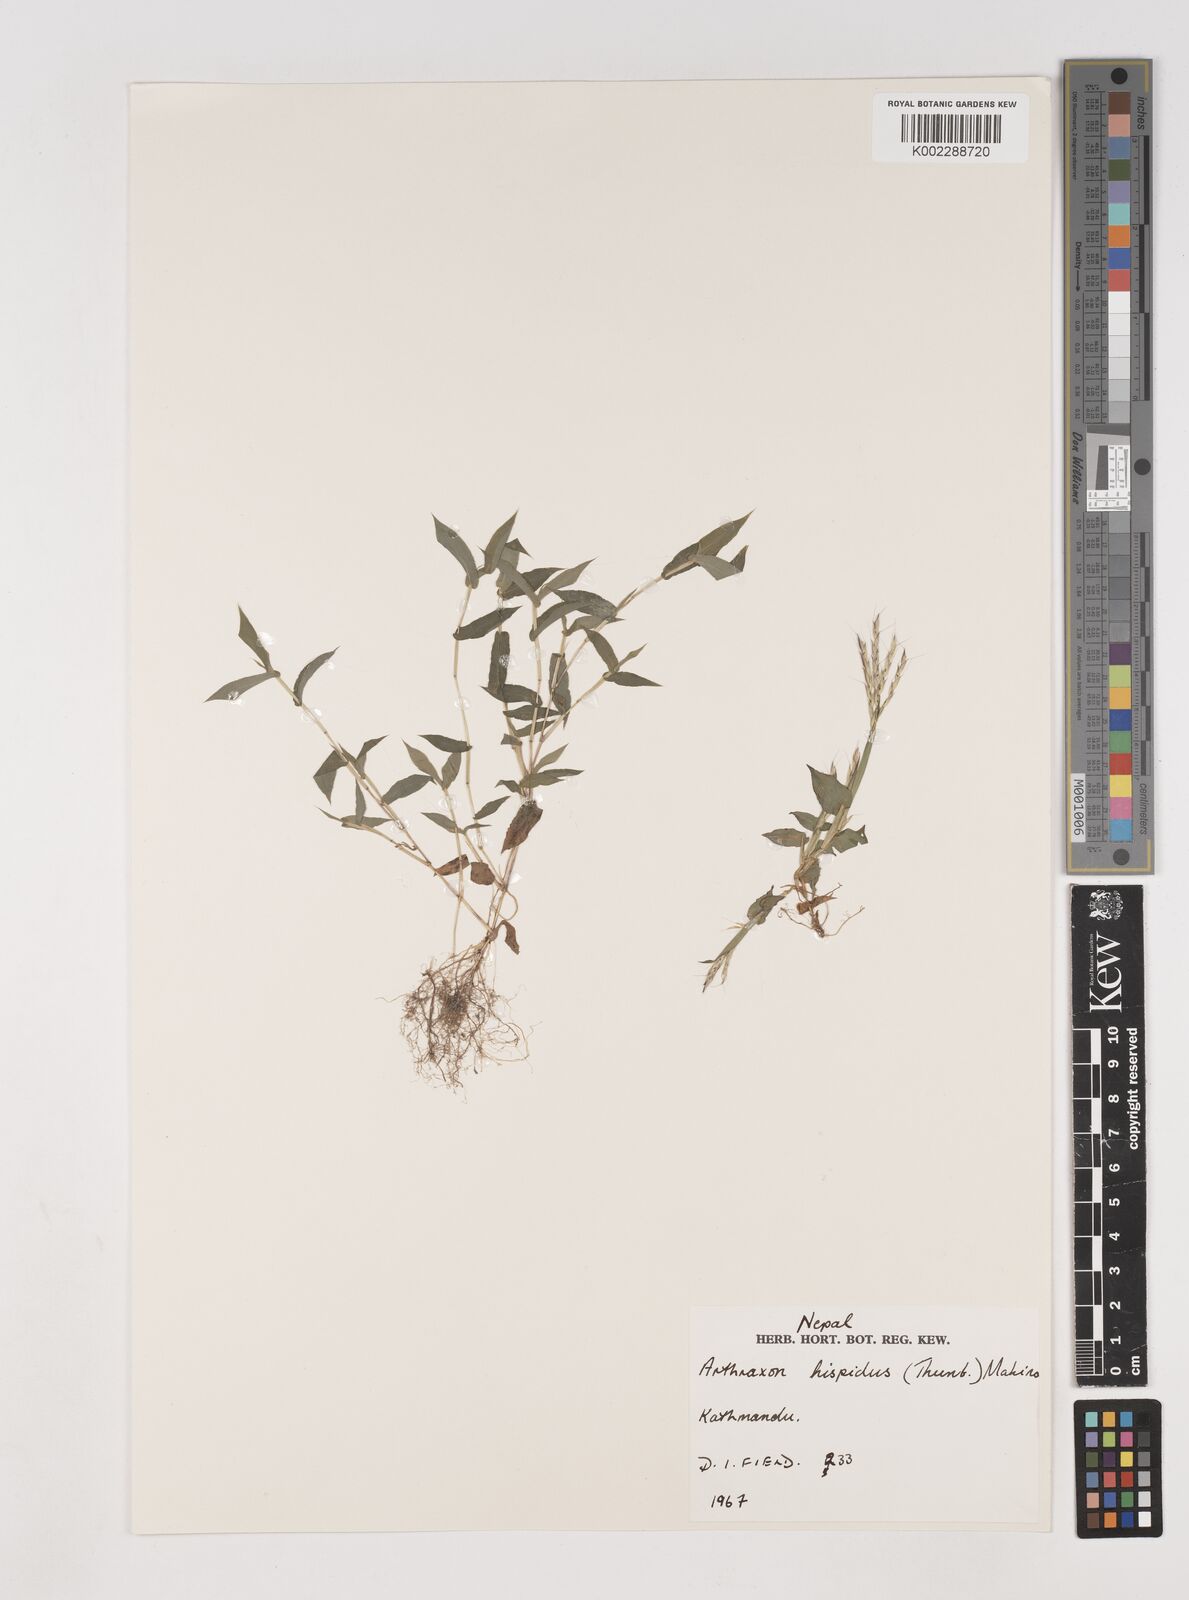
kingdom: Plantae
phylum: Tracheophyta
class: Liliopsida
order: Poales
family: Poaceae
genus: Arthraxon
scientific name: Arthraxon hispidus
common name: Small carpgrass
